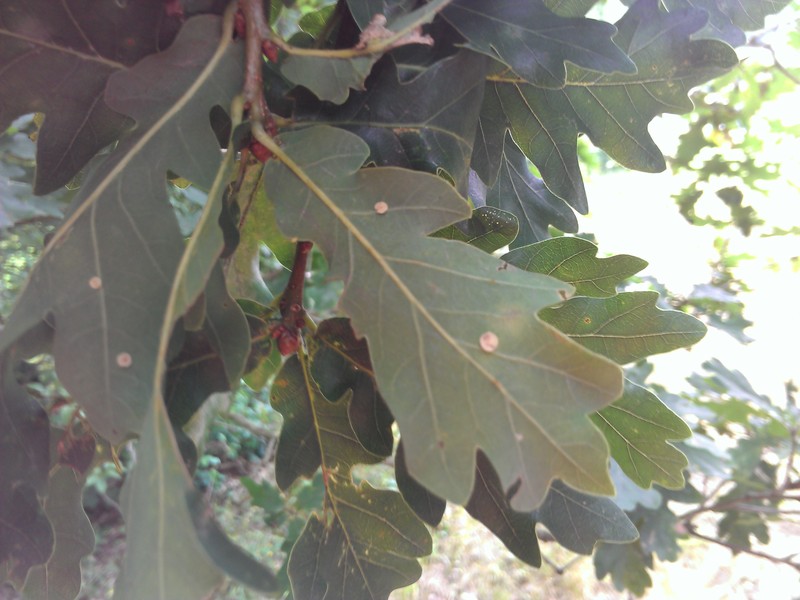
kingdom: Animalia
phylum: Arthropoda
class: Insecta
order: Hymenoptera
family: Cynipidae
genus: Neuroterus
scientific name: Neuroterus tricolor
